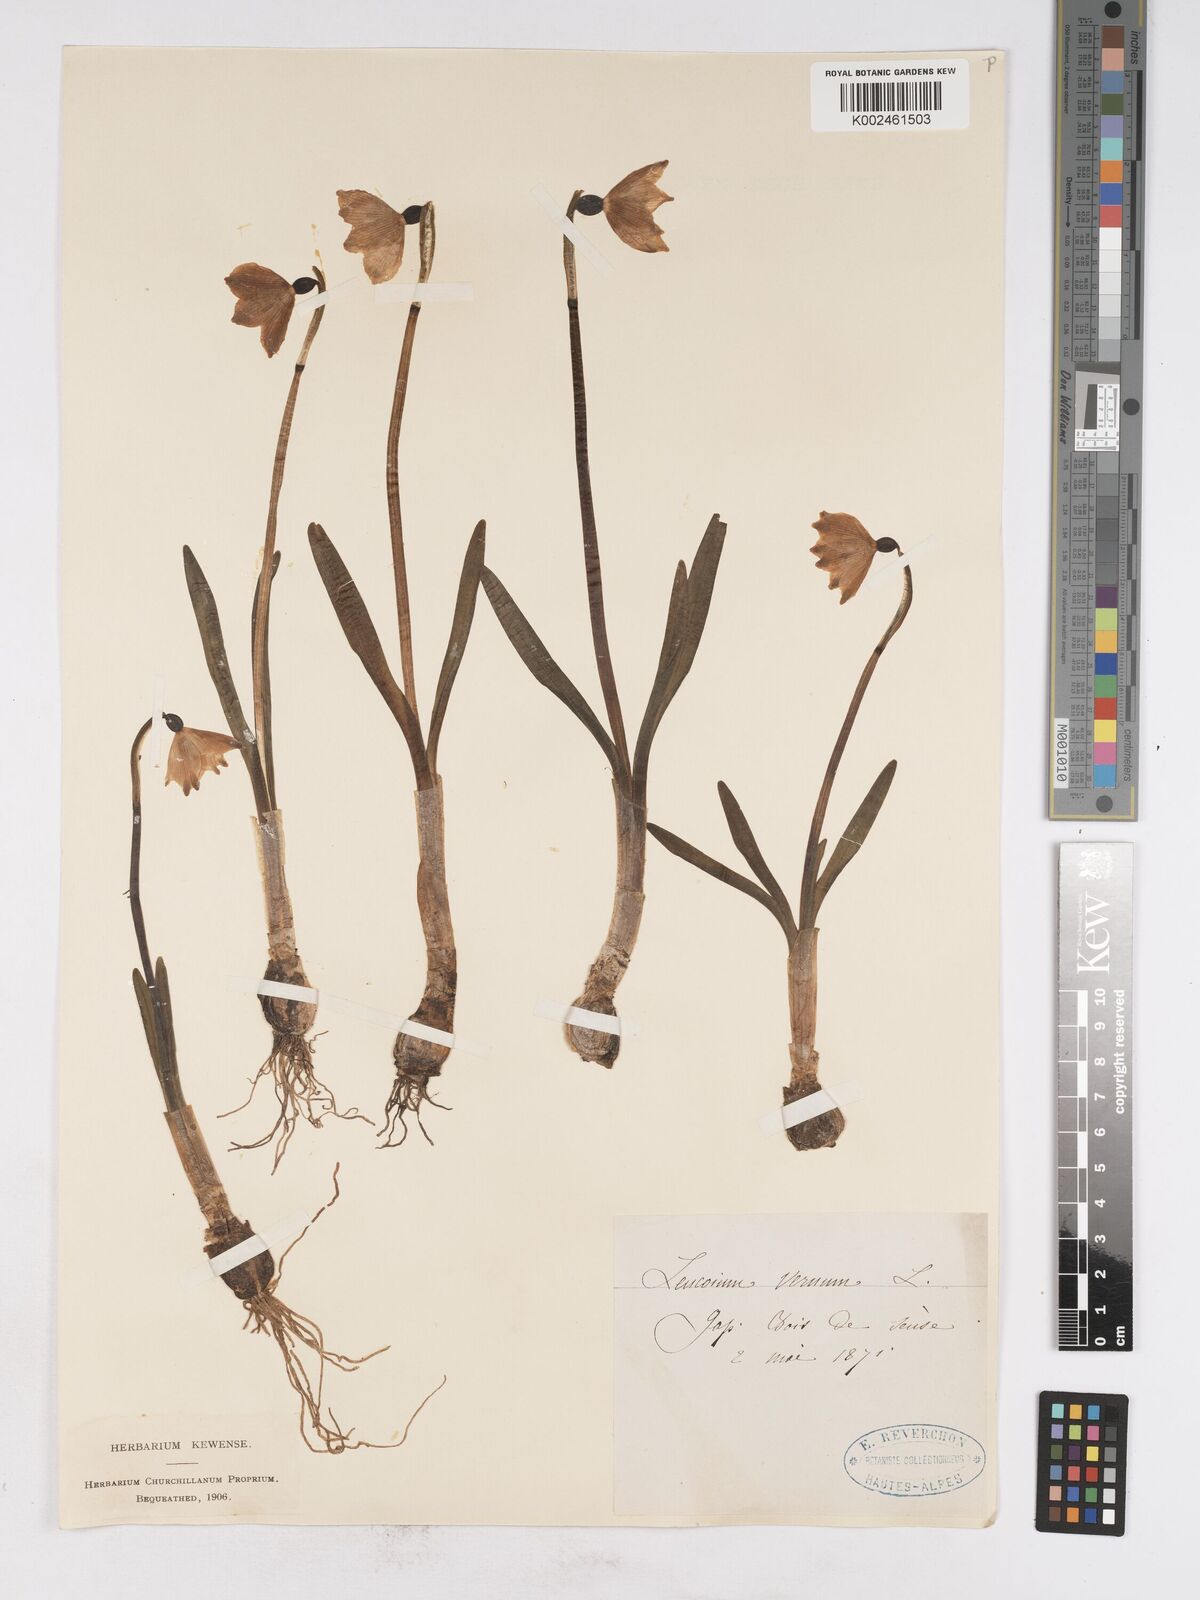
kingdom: Plantae
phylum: Tracheophyta
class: Liliopsida
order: Asparagales
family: Amaryllidaceae
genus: Leucojum
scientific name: Leucojum vernum
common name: Spring snowflake
